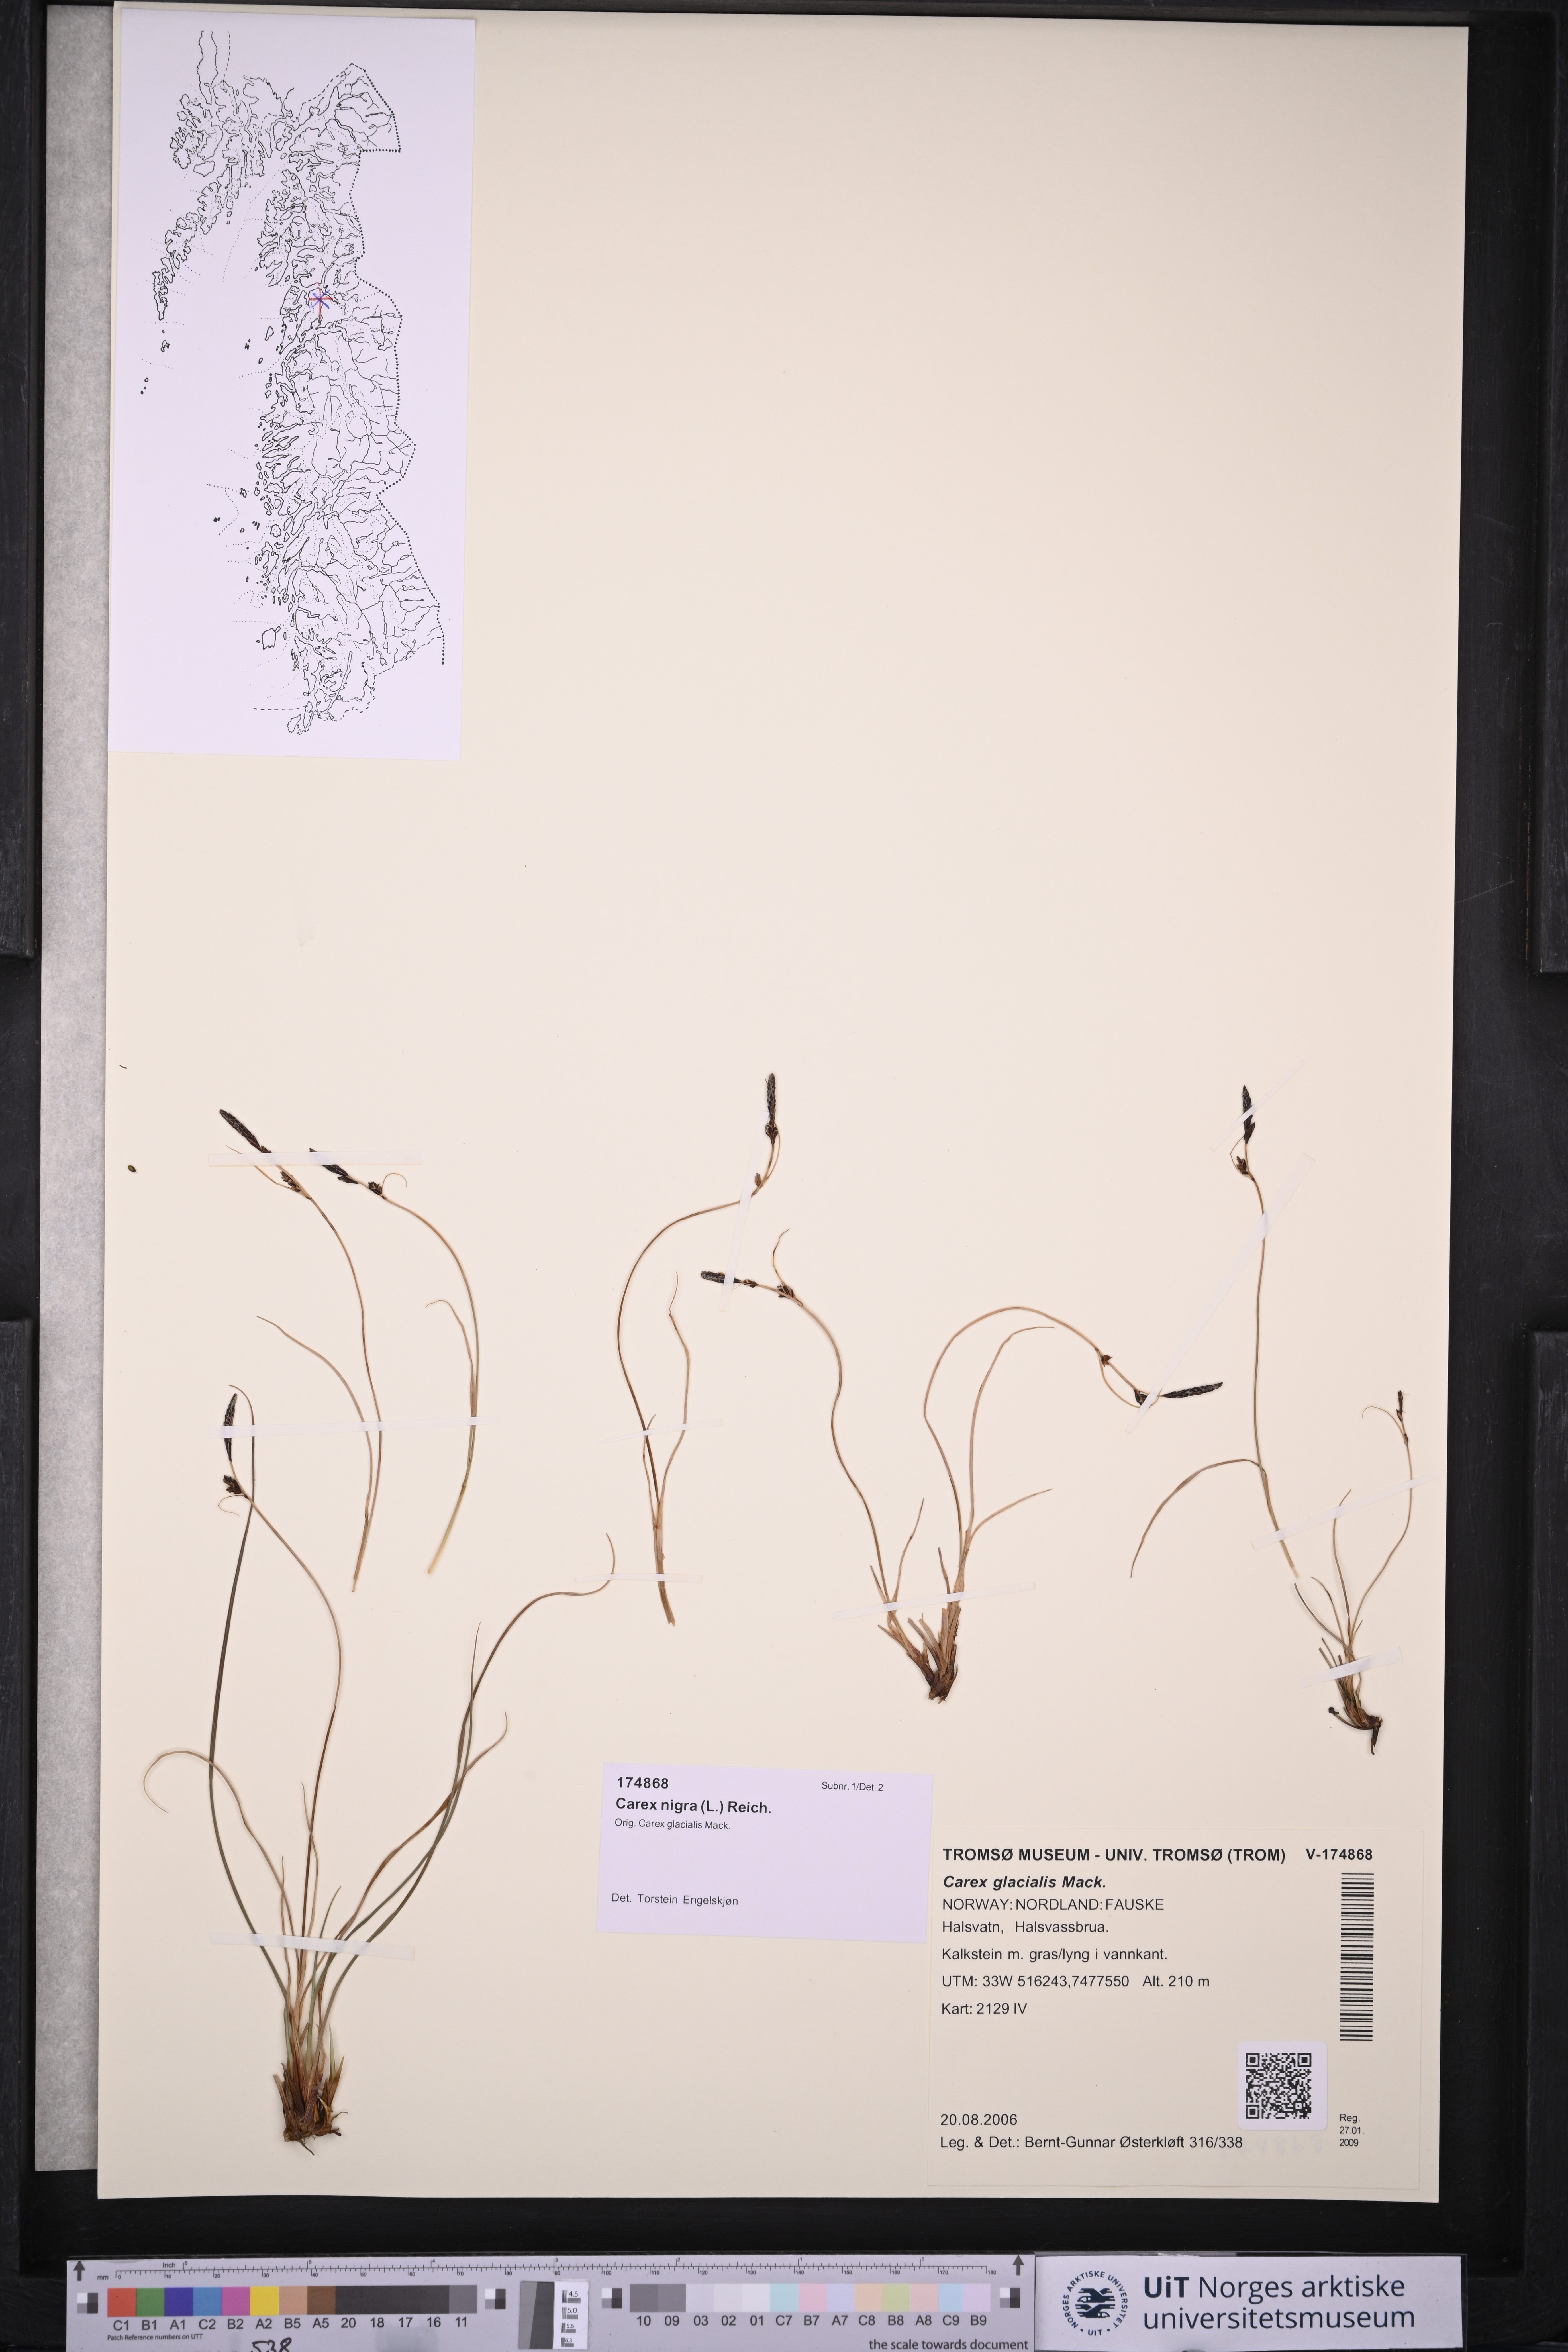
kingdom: Plantae
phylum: Tracheophyta
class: Liliopsida
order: Poales
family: Cyperaceae
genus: Carex
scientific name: Carex nigra
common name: Common sedge
